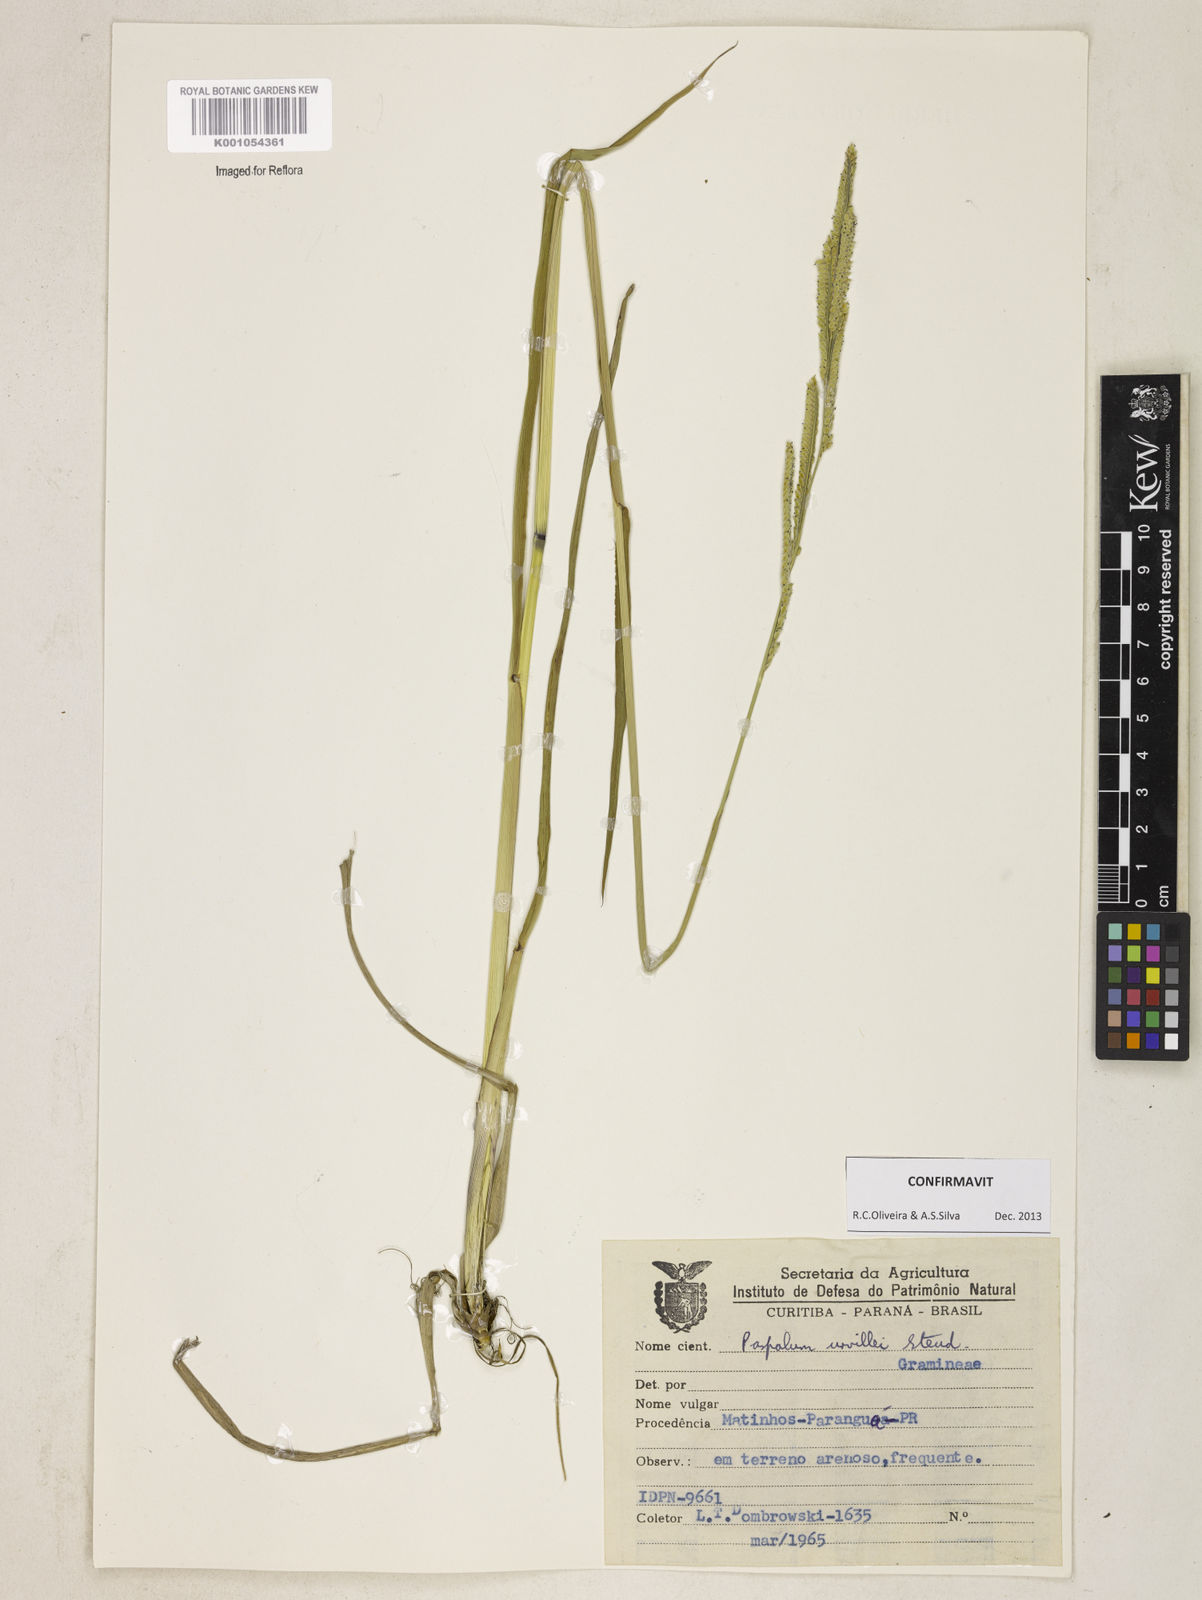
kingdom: Plantae
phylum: Tracheophyta
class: Liliopsida
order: Poales
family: Poaceae
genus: Paspalum
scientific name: Paspalum urvillei
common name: Vasey's grass
